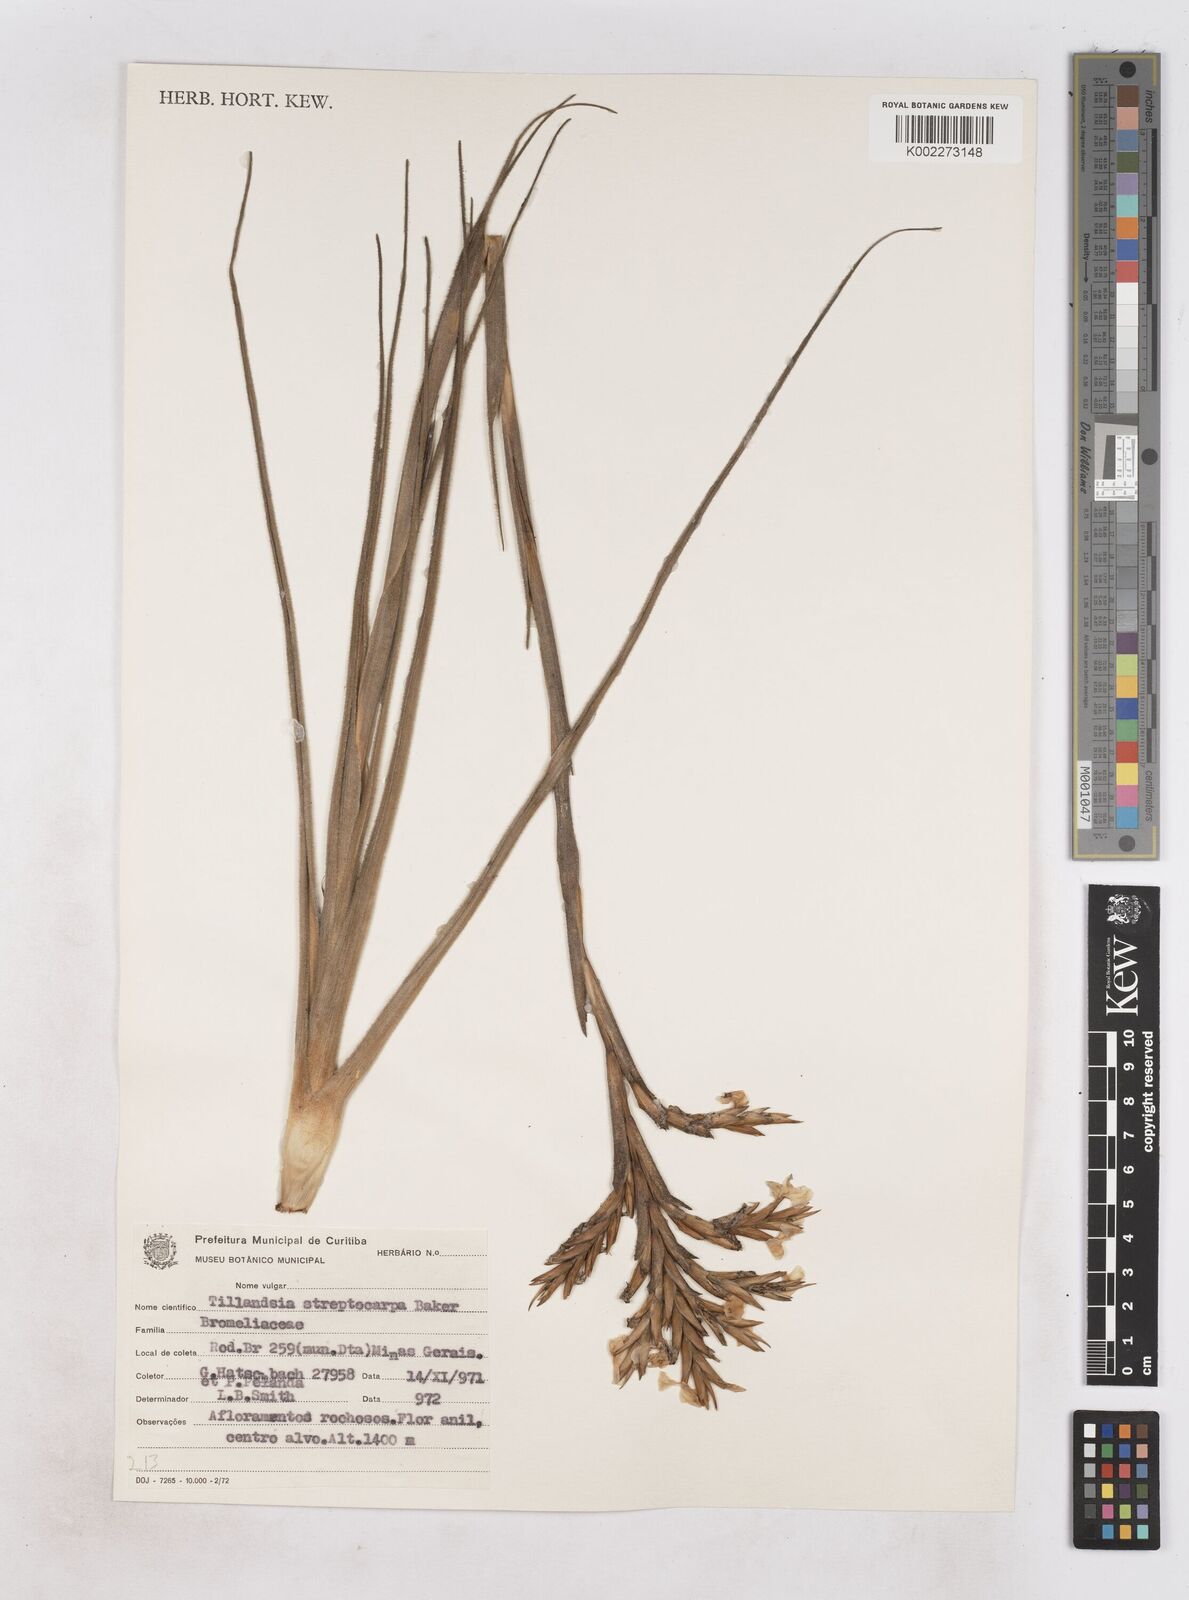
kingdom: Plantae
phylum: Tracheophyta
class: Liliopsida
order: Poales
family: Bromeliaceae
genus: Tillandsia
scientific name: Tillandsia streptocarpa
